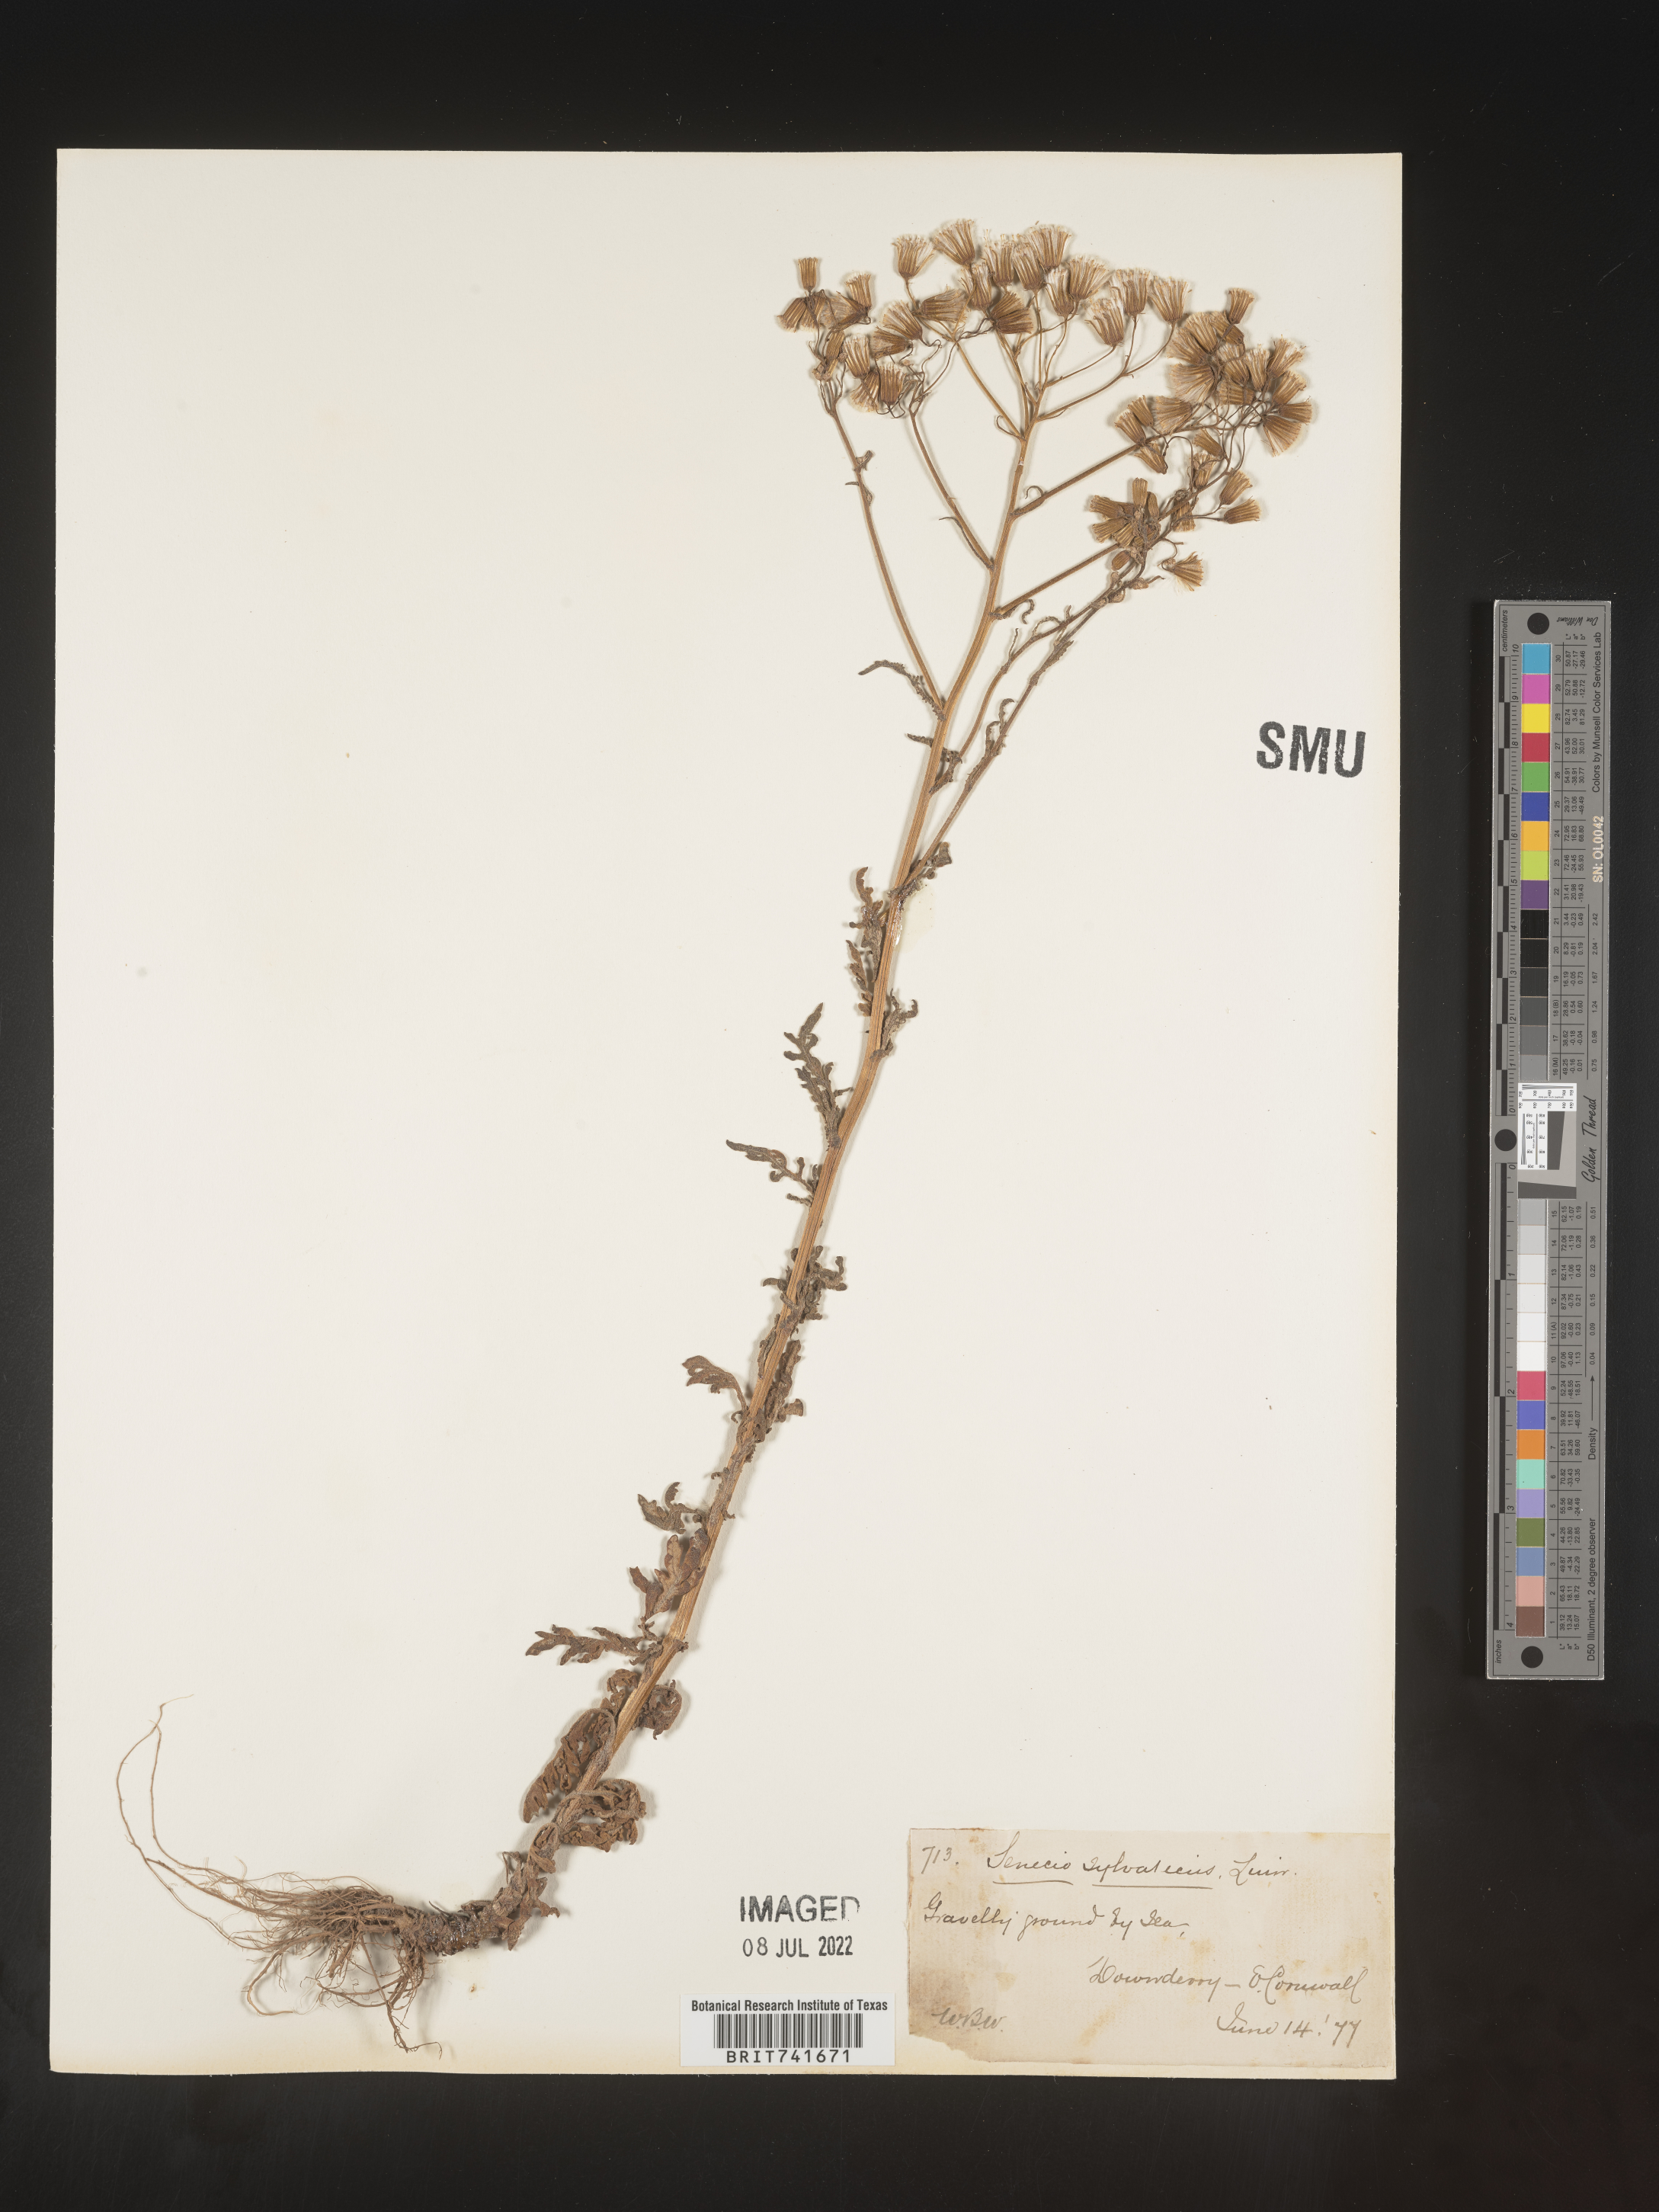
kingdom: Plantae
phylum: Tracheophyta
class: Magnoliopsida
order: Asterales
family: Asteraceae
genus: Senecio
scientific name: Senecio
